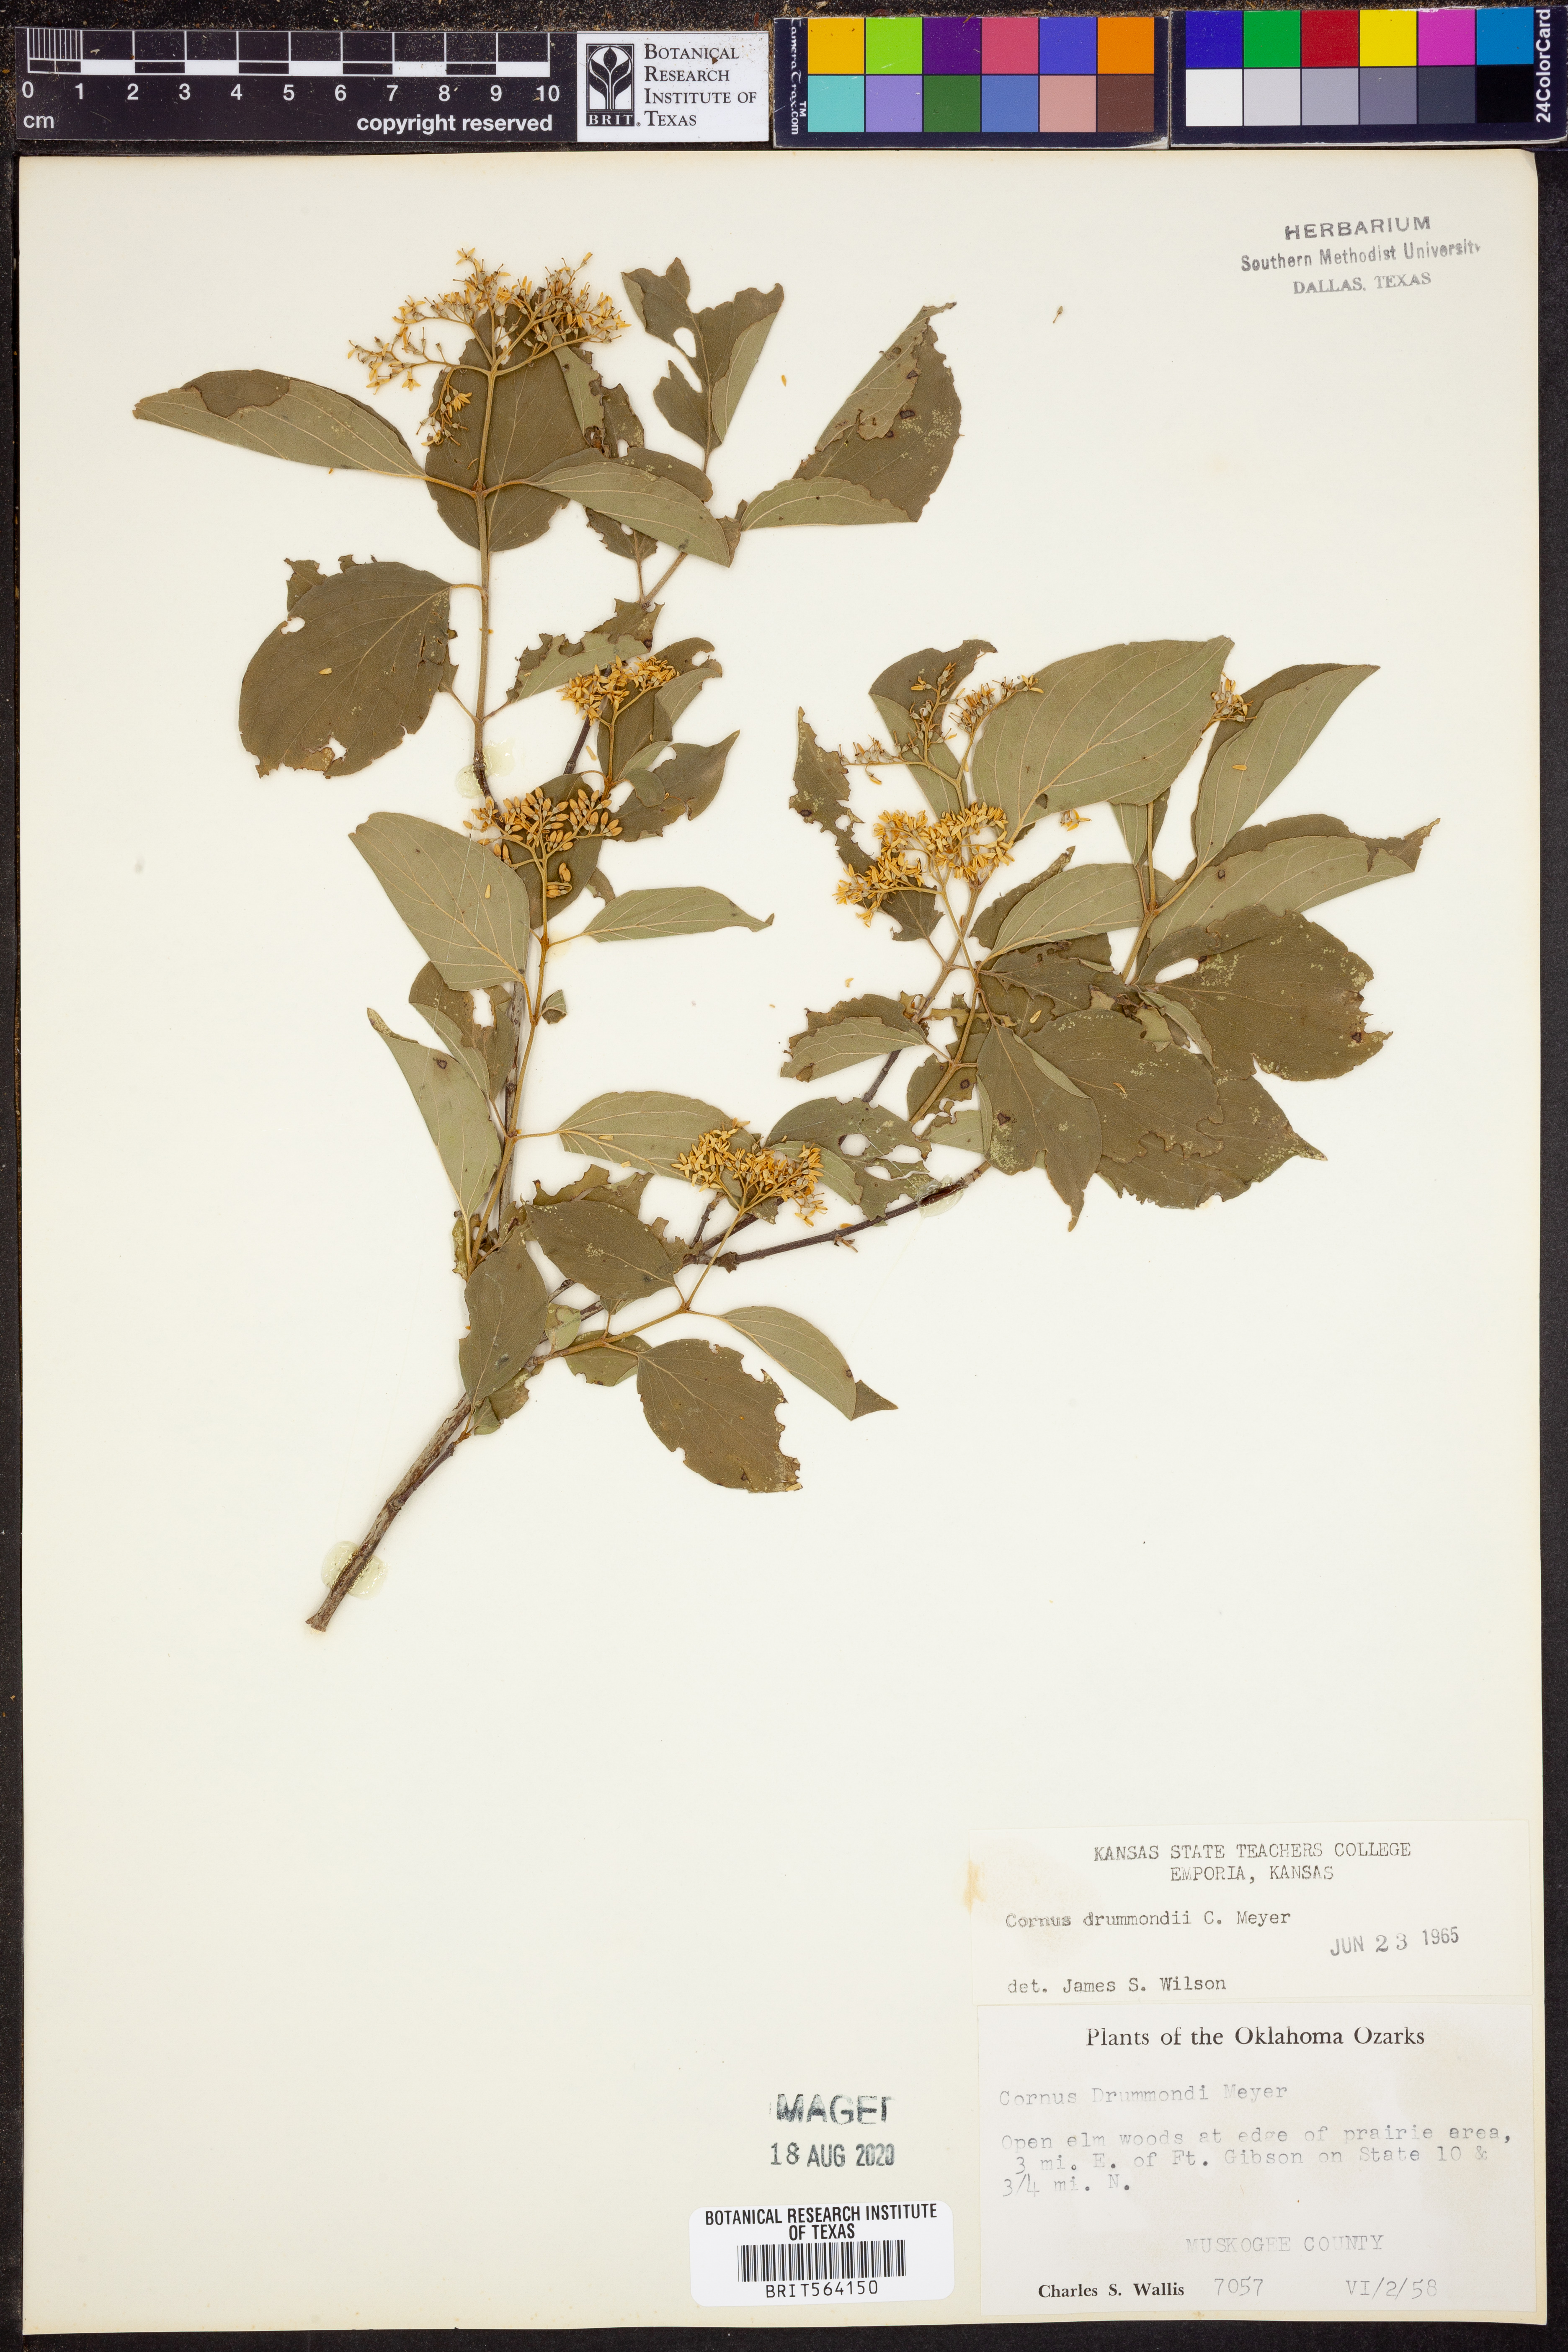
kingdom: Plantae
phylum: Tracheophyta
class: Magnoliopsida
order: Cornales
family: Cornaceae
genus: Cornus
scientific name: Cornus drummondii
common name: Rough-leaf dogwood
